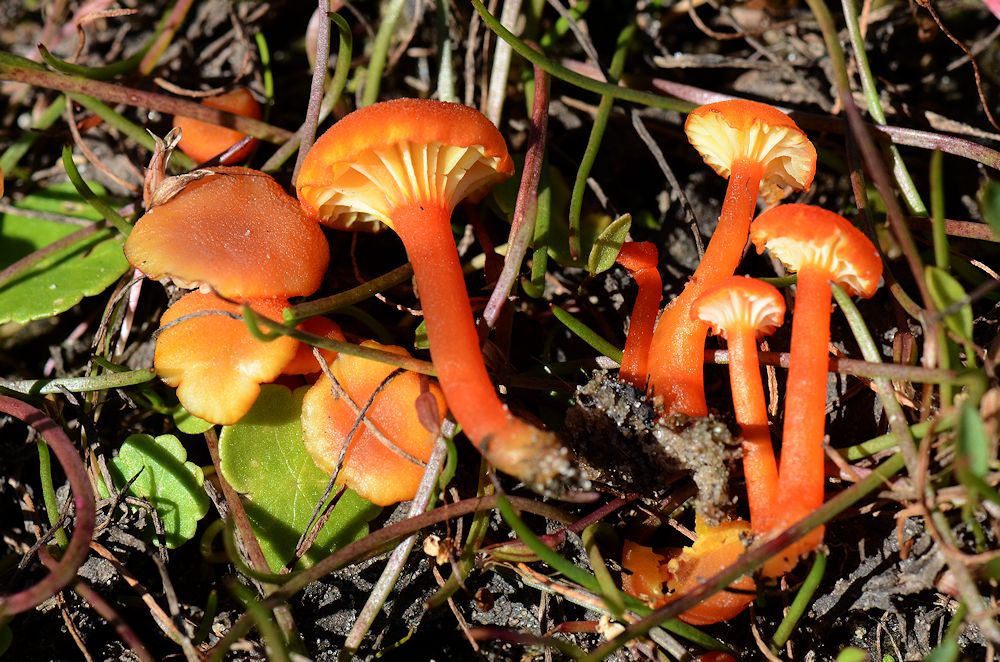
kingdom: Fungi
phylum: Basidiomycota
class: Agaricomycetes
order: Agaricales
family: Hygrophoraceae
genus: Hygrocybe
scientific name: Hygrocybe cantharellus
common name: kantarel-vokshat
